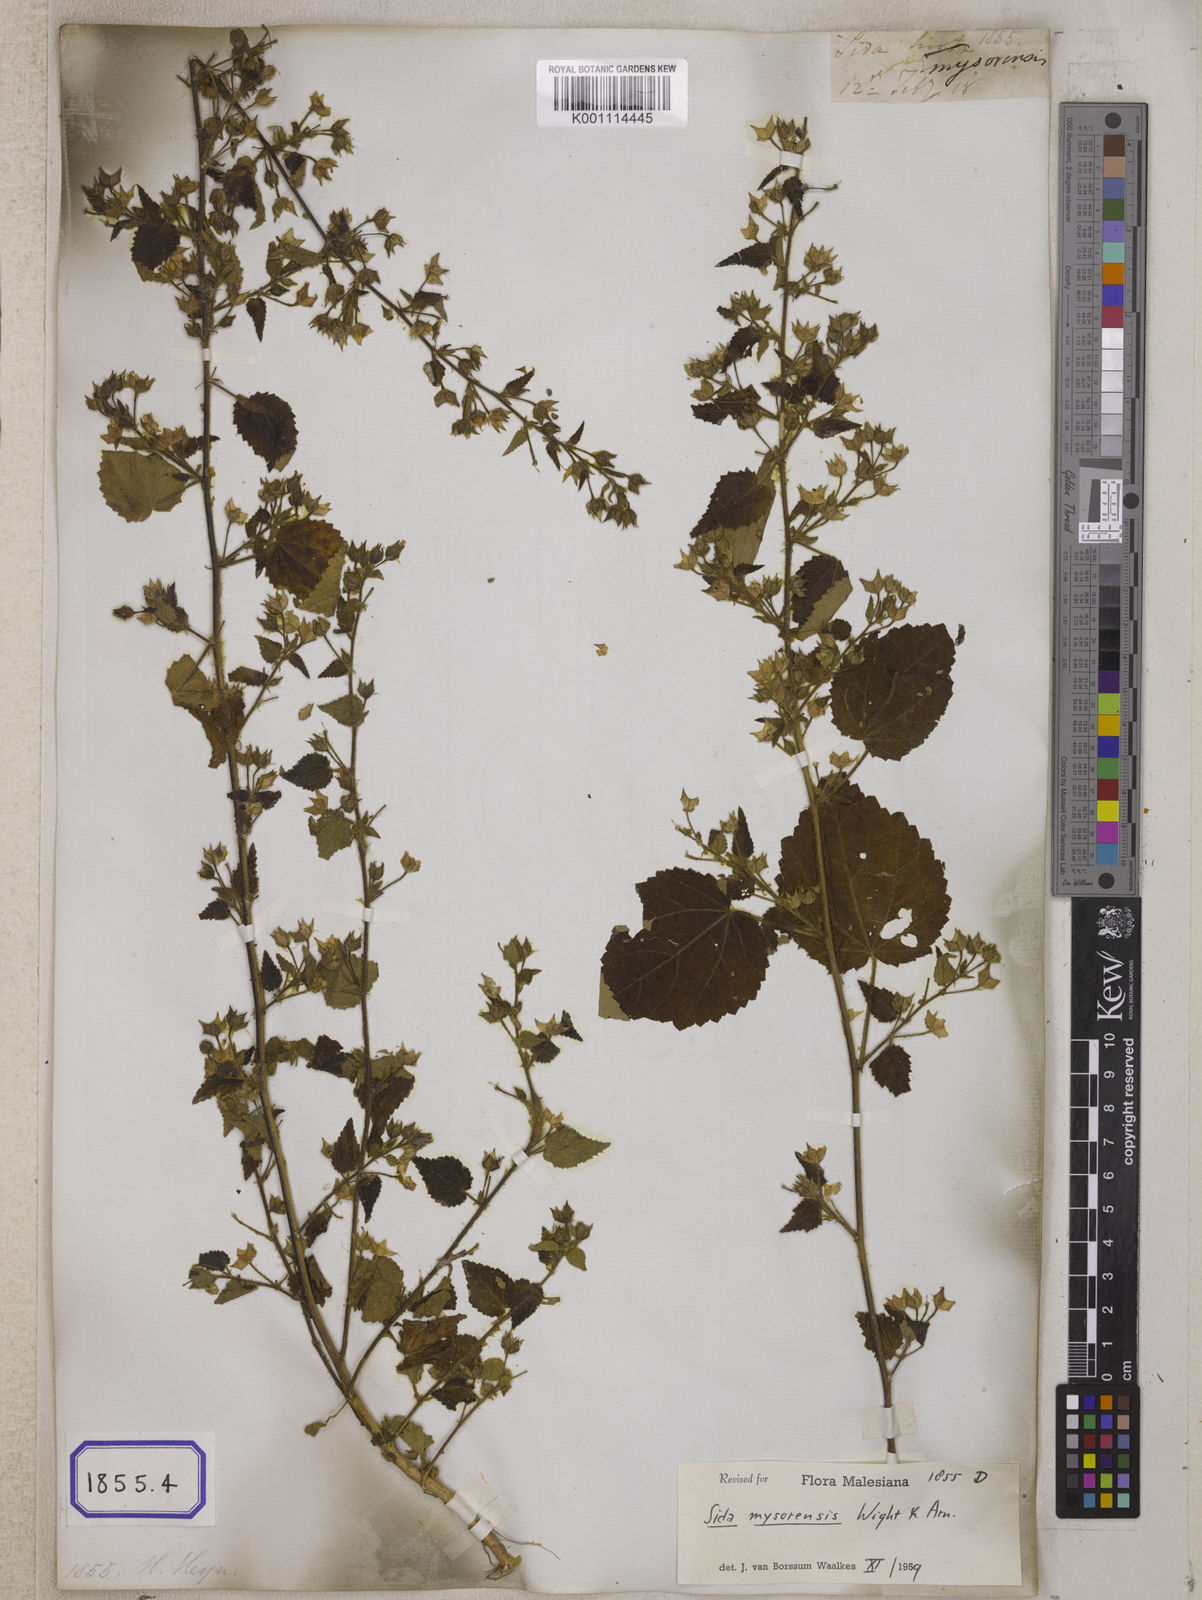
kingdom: Plantae
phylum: Tracheophyta
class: Magnoliopsida
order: Malvales
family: Malvaceae
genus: Abutilon
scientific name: Abutilon hirtum
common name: Florida keys indian mallow
